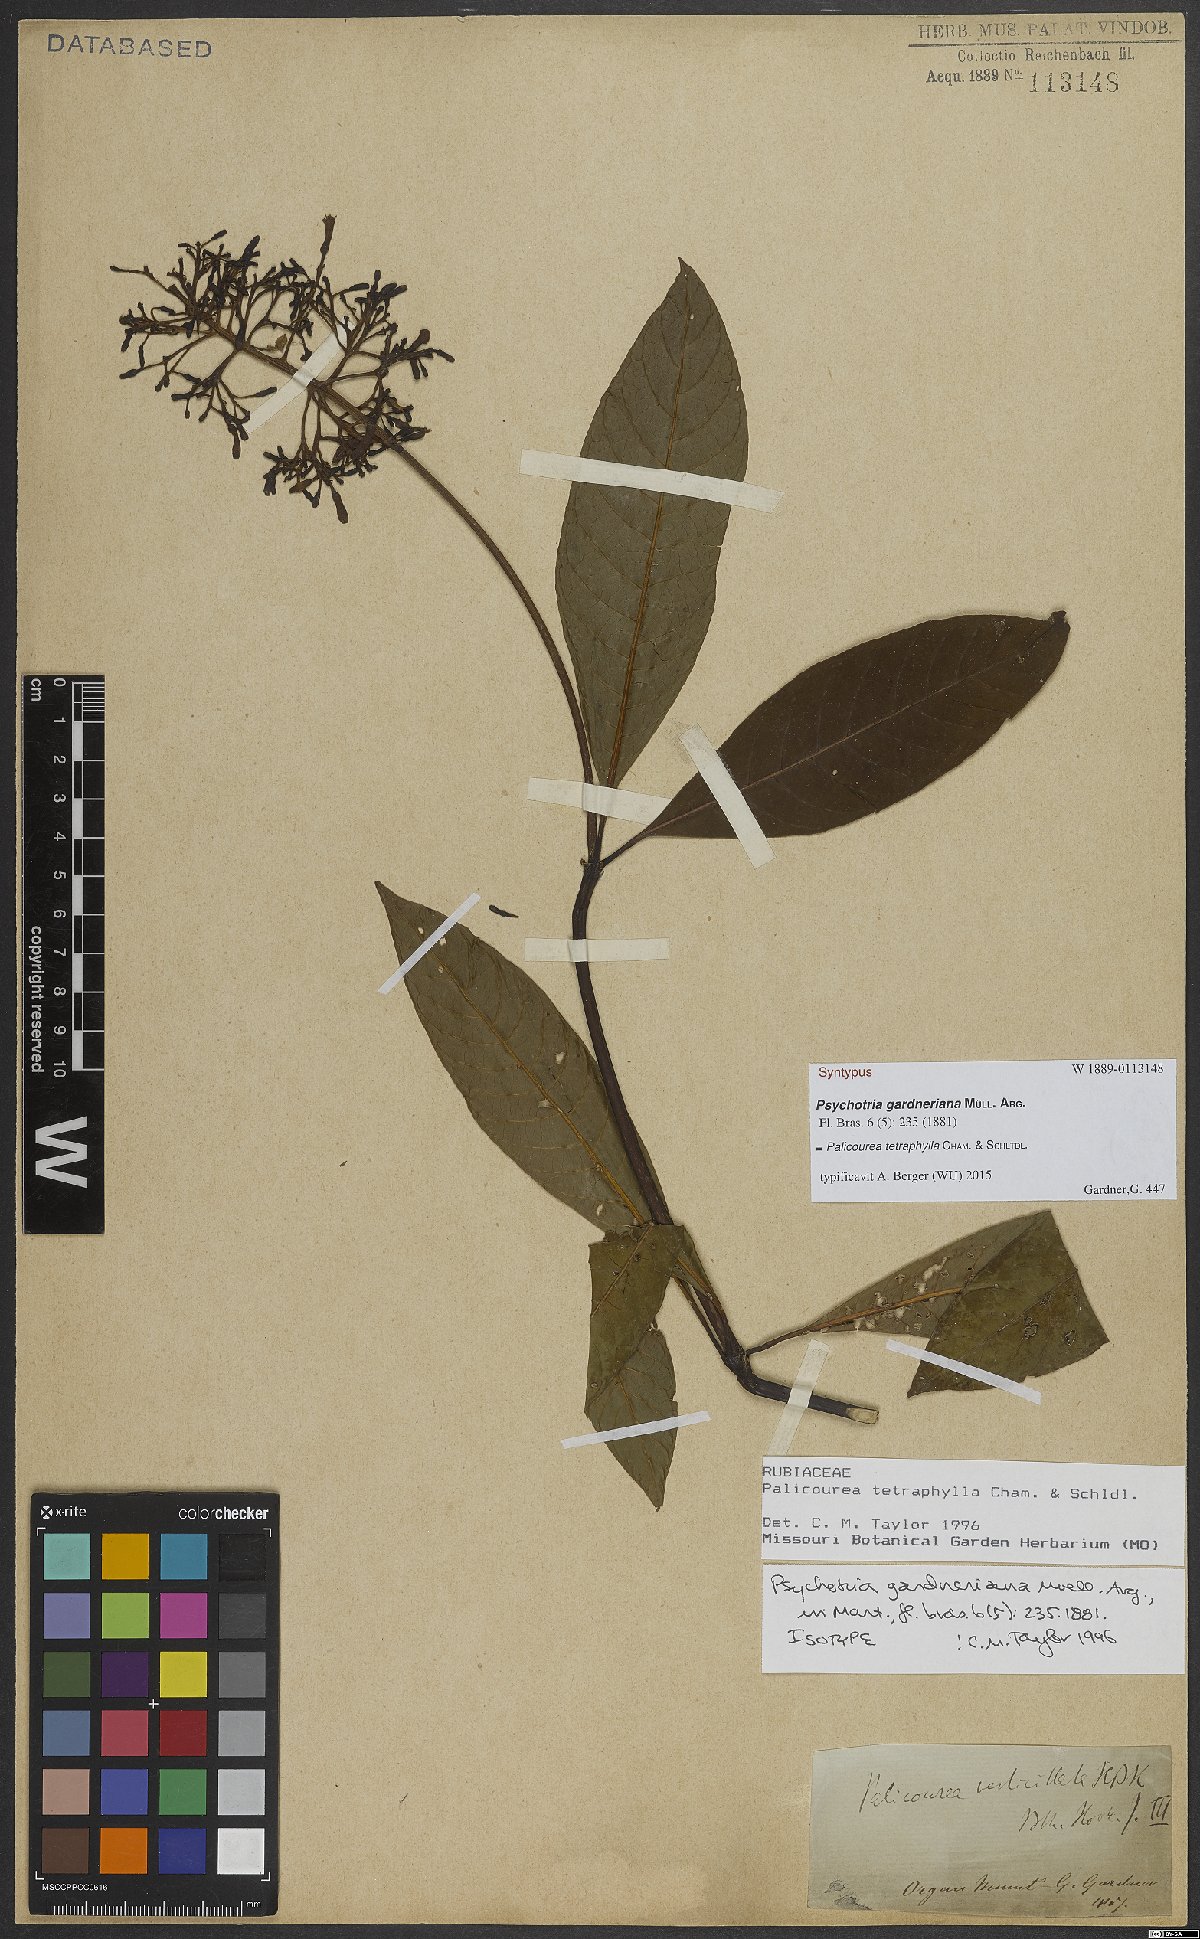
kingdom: Plantae
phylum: Tracheophyta
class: Magnoliopsida
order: Gentianales
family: Rubiaceae
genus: Palicourea
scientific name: Palicourea tetraphylla
